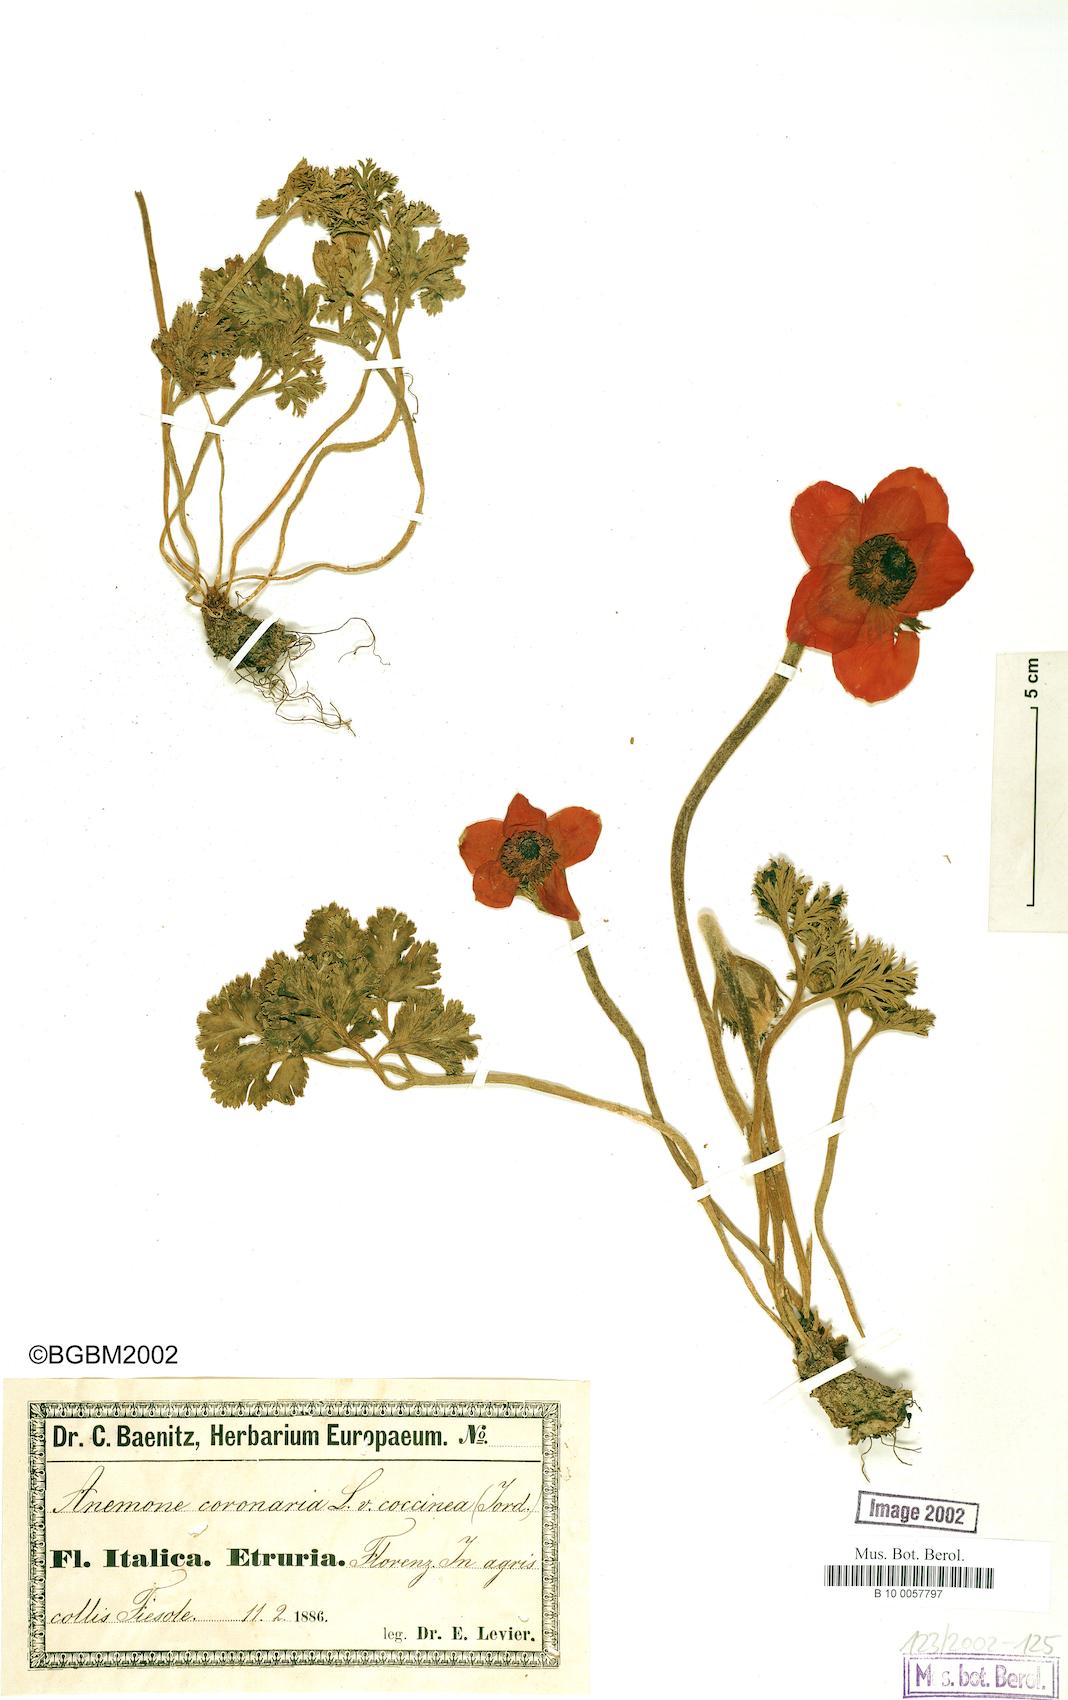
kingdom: Plantae
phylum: Tracheophyta
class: Magnoliopsida
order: Ranunculales
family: Ranunculaceae
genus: Anemone
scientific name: Anemone coronaria
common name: Poppy anemone
